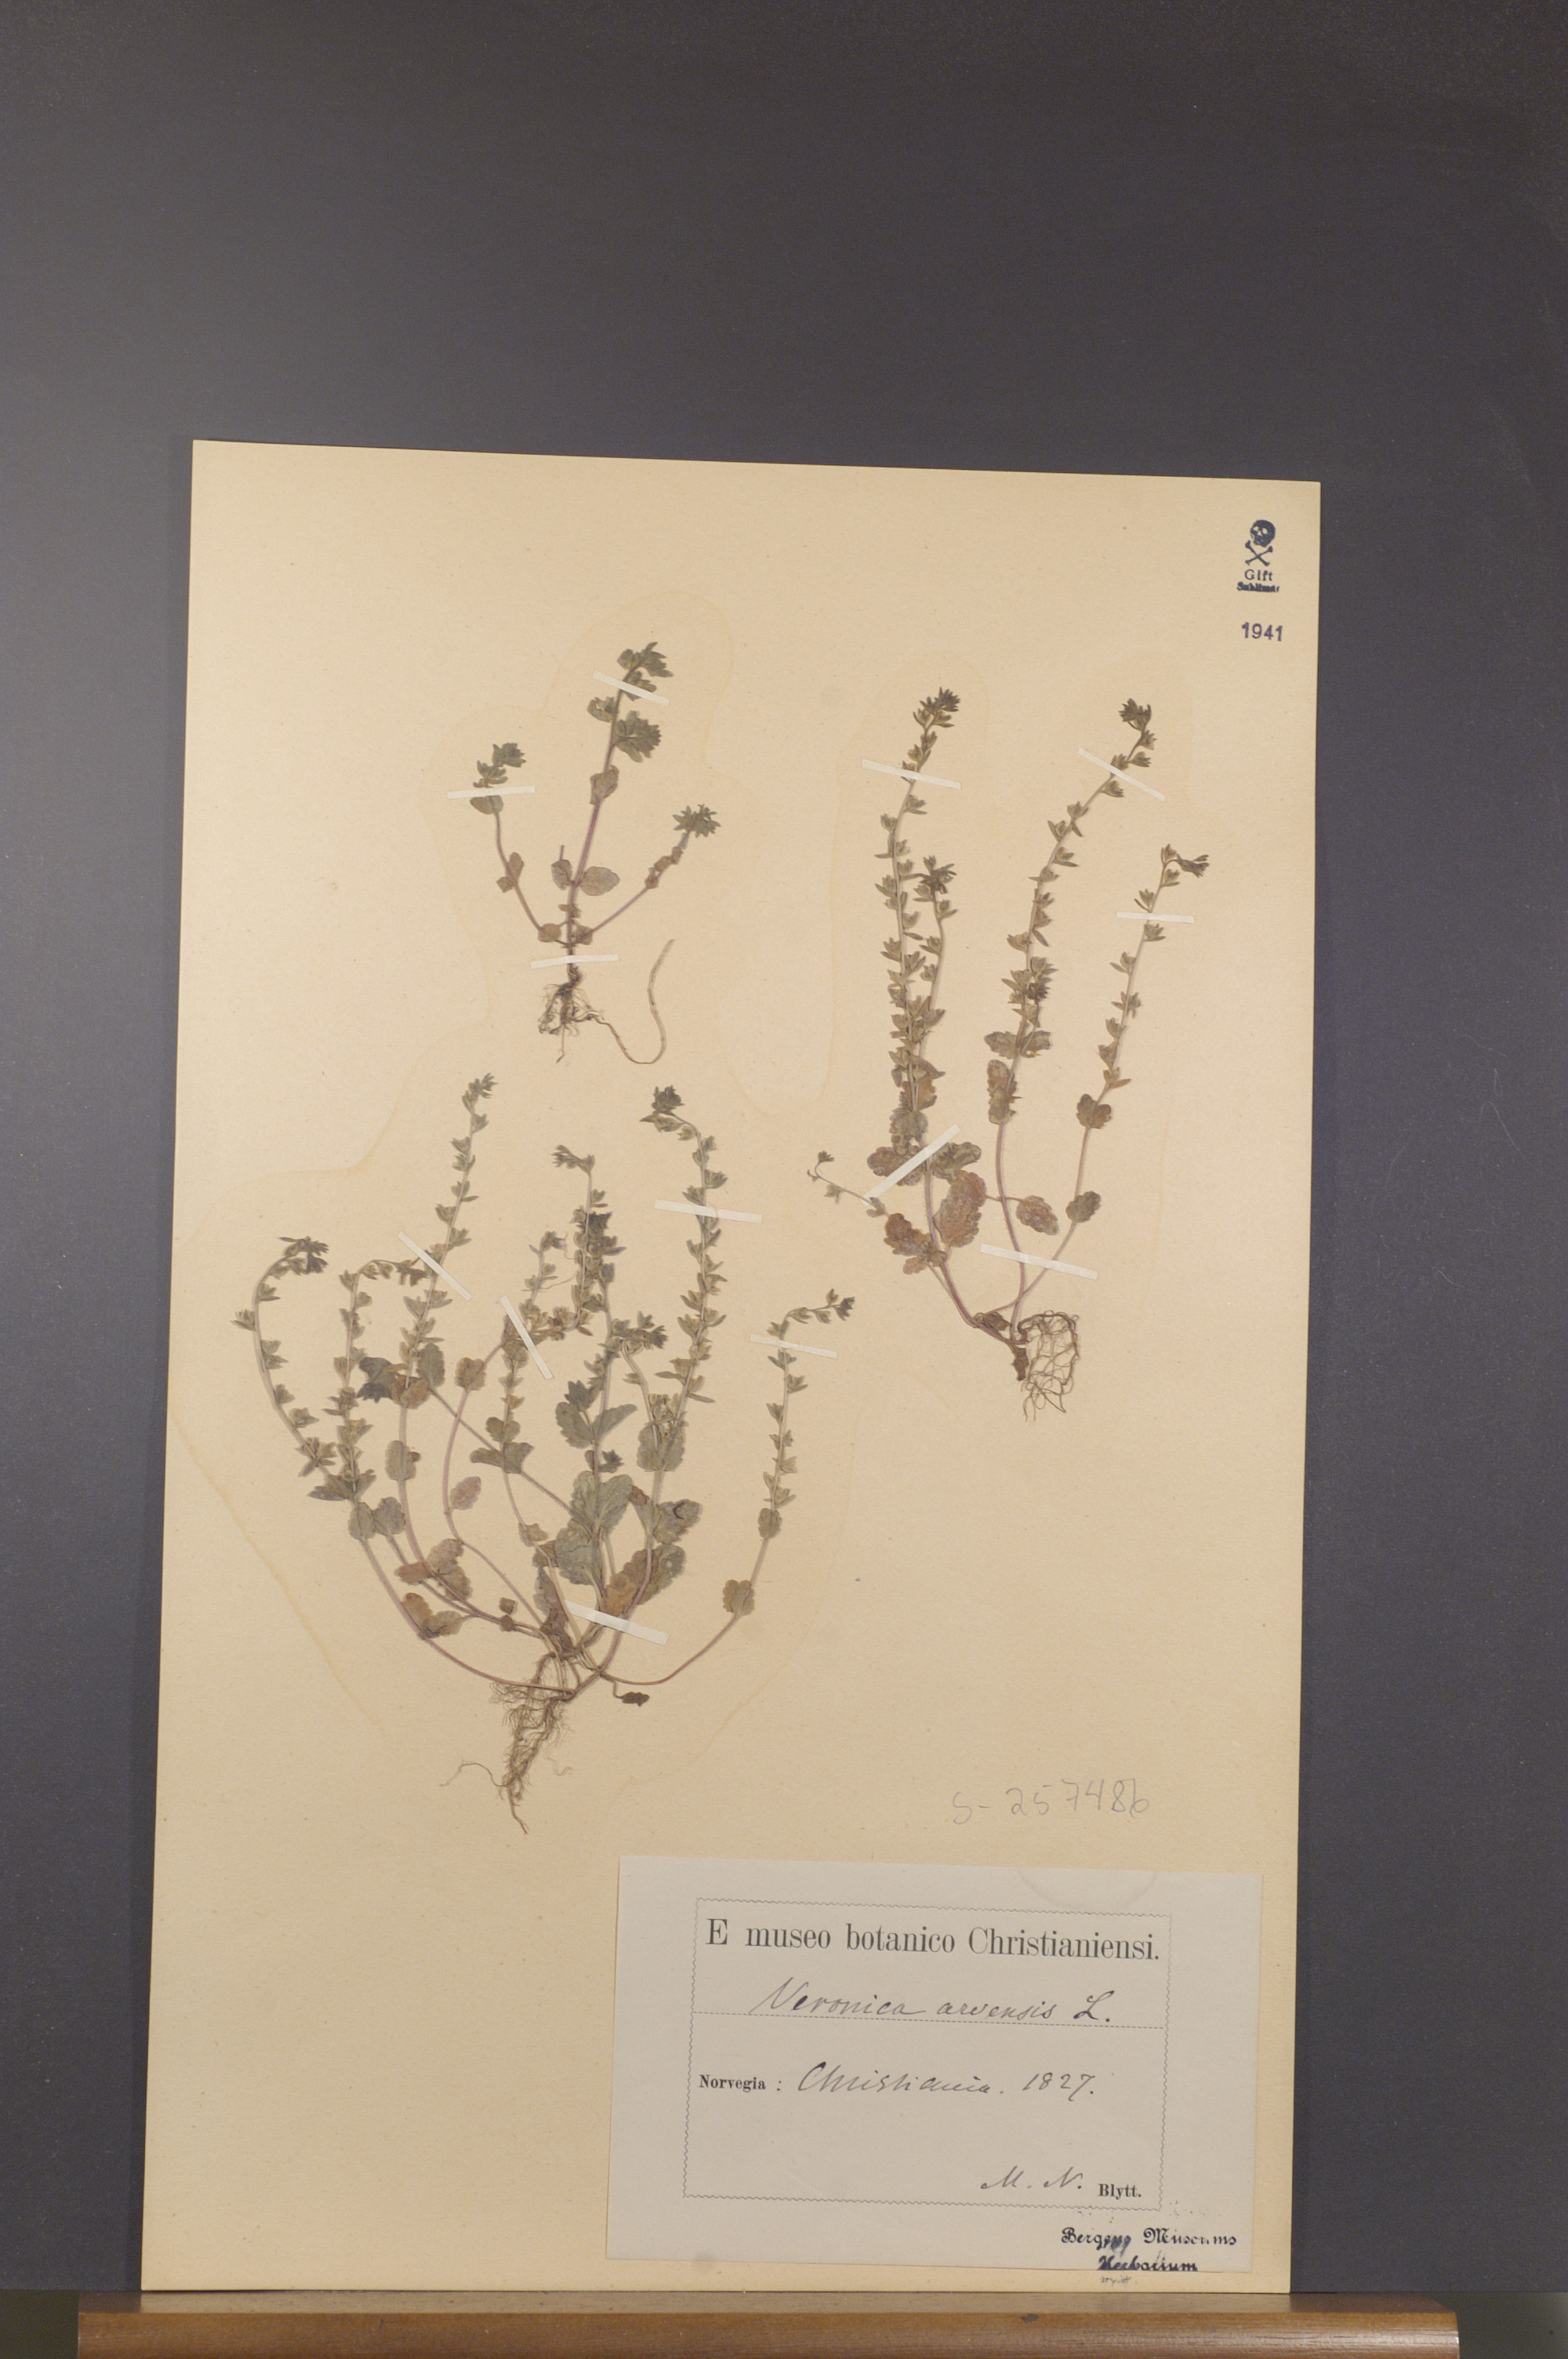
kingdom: Plantae
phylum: Tracheophyta
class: Magnoliopsida
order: Lamiales
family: Plantaginaceae
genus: Veronica
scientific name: Veronica arvensis
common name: Corn speedwell
